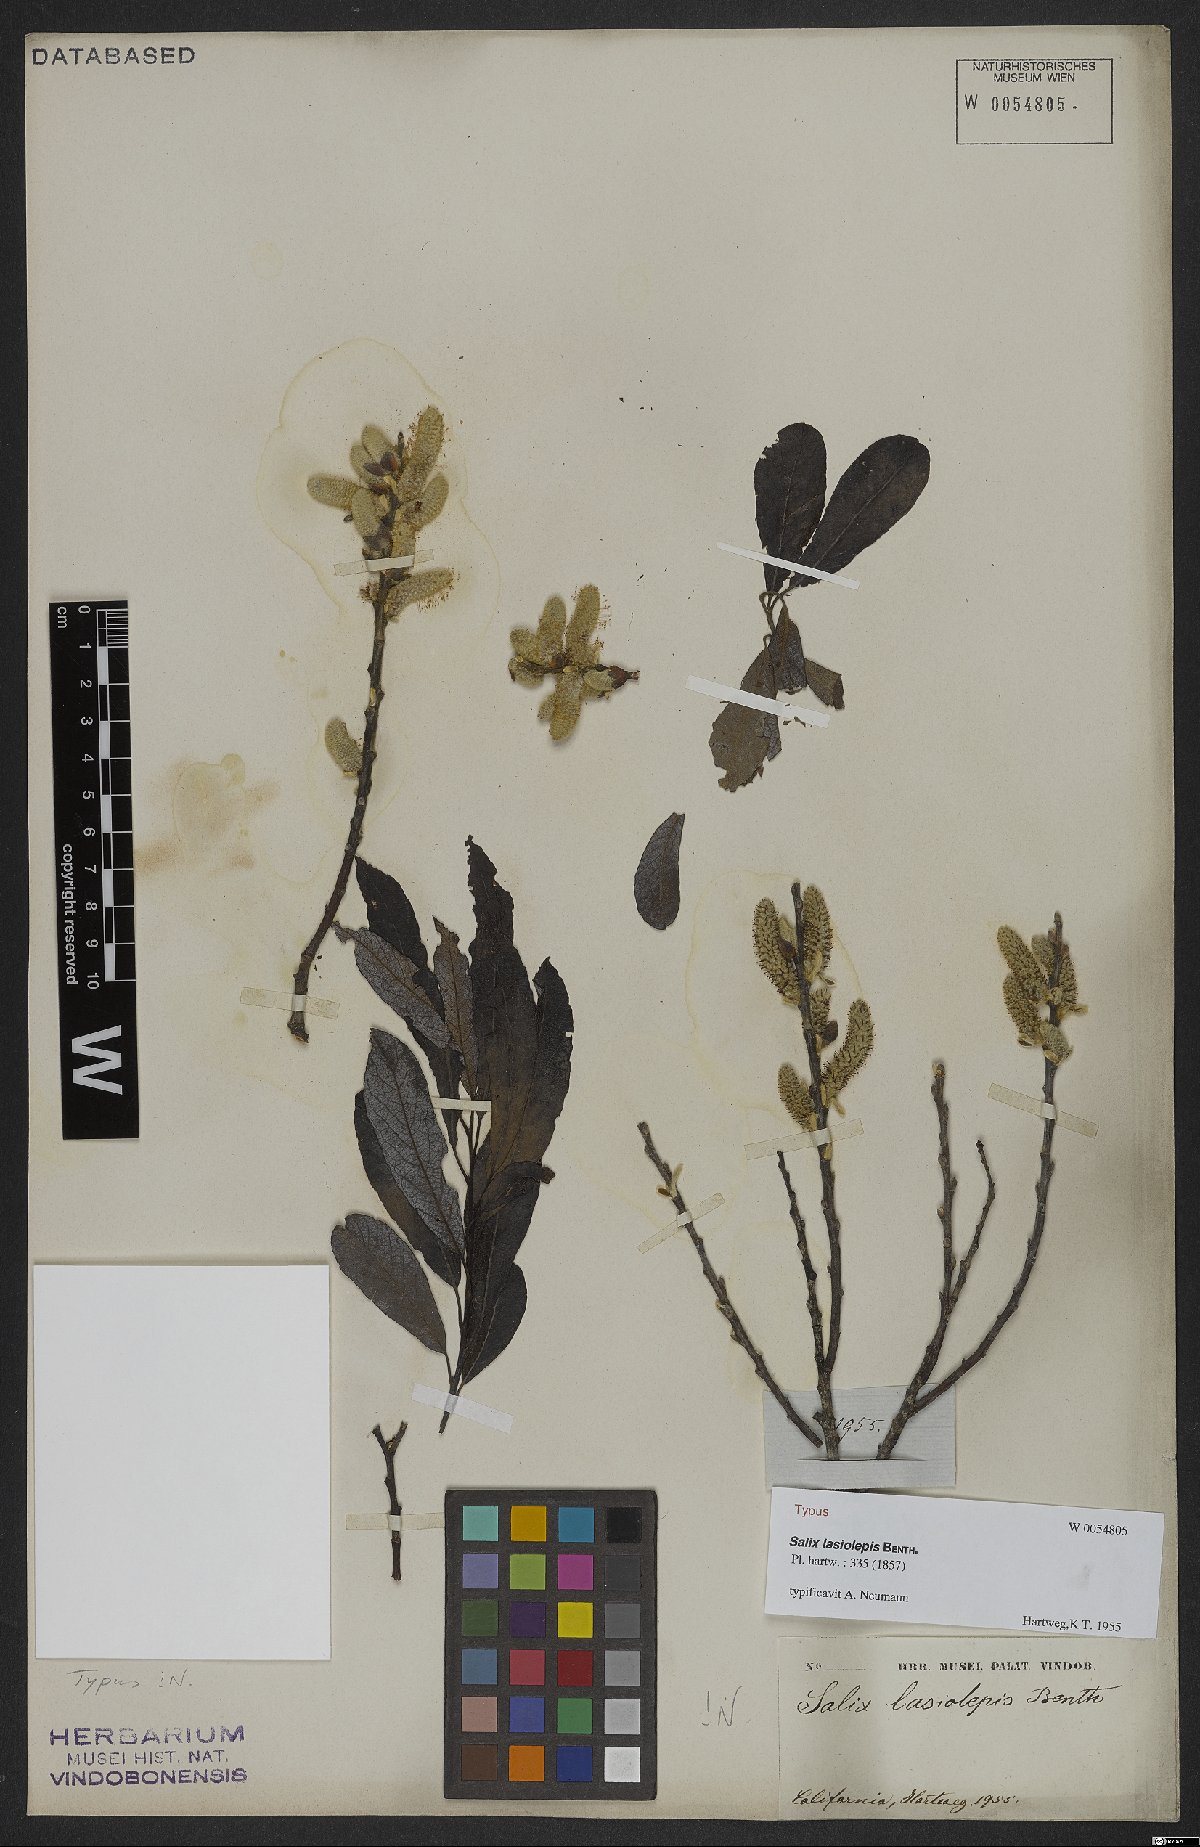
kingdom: Plantae
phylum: Tracheophyta
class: Magnoliopsida
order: Malpighiales
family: Salicaceae
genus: Salix
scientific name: Salix lasiolepis
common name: Arroyo willow
